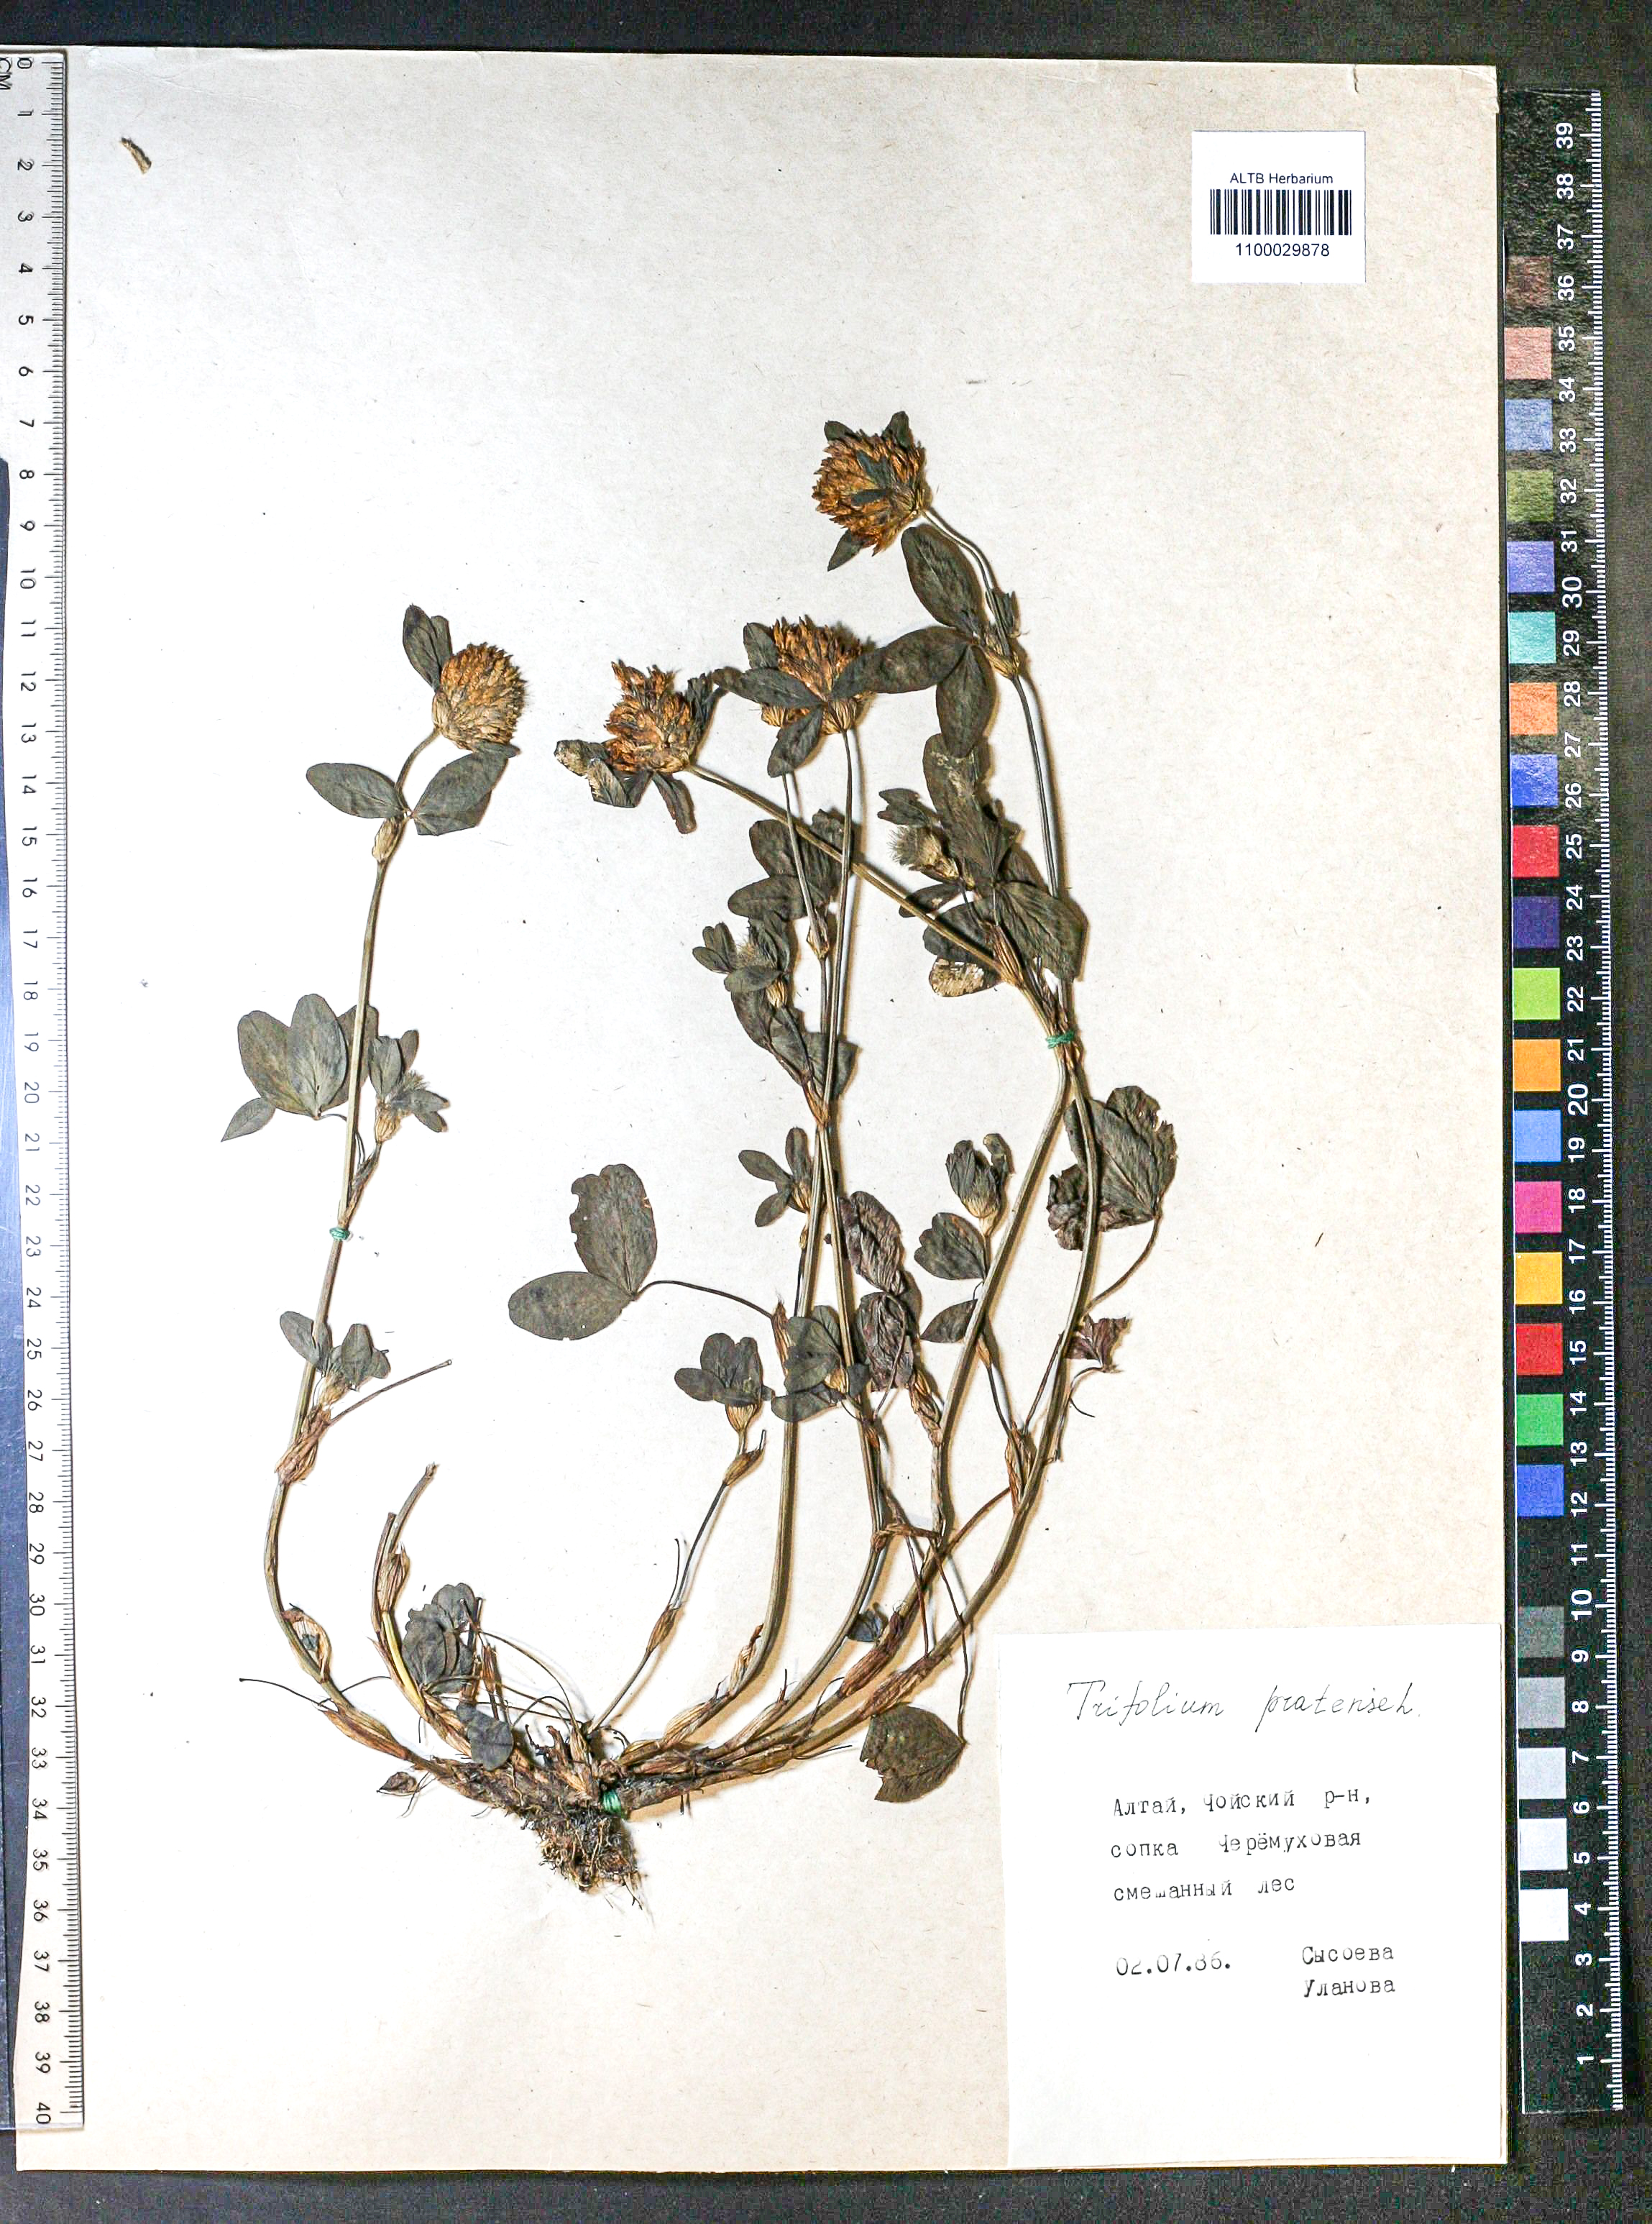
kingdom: Plantae
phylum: Tracheophyta
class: Magnoliopsida
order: Fabales
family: Fabaceae
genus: Trifolium
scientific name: Trifolium pratense
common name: Red clover
